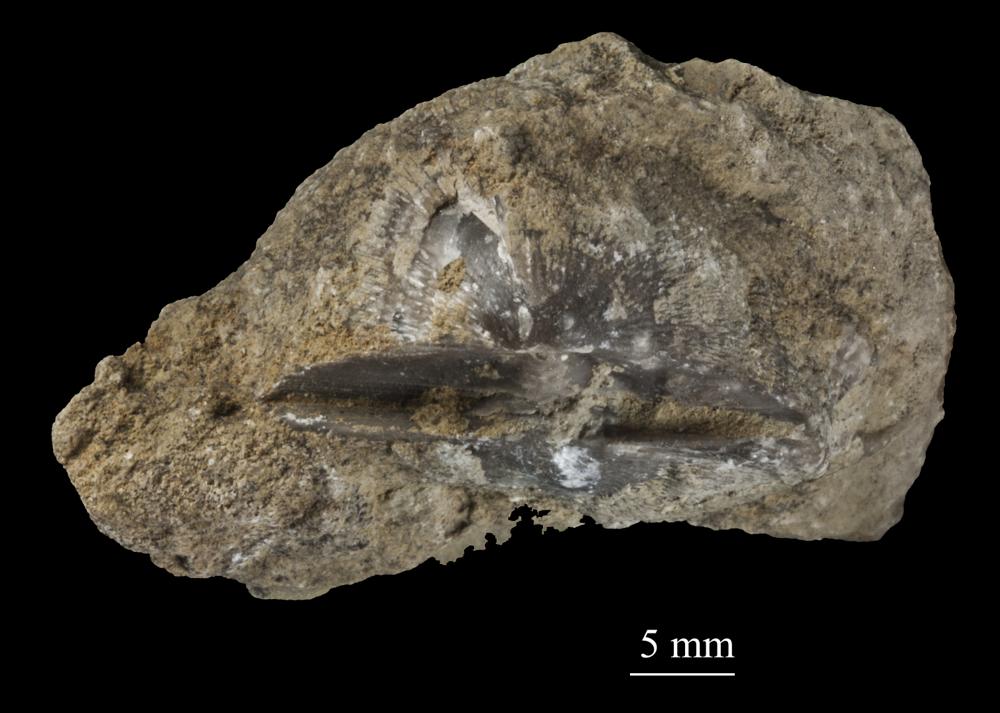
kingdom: Animalia
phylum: Brachiopoda
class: Rhynchonellata
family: Clitambonitidae
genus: Clitambonites
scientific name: Clitambonites squamatus
